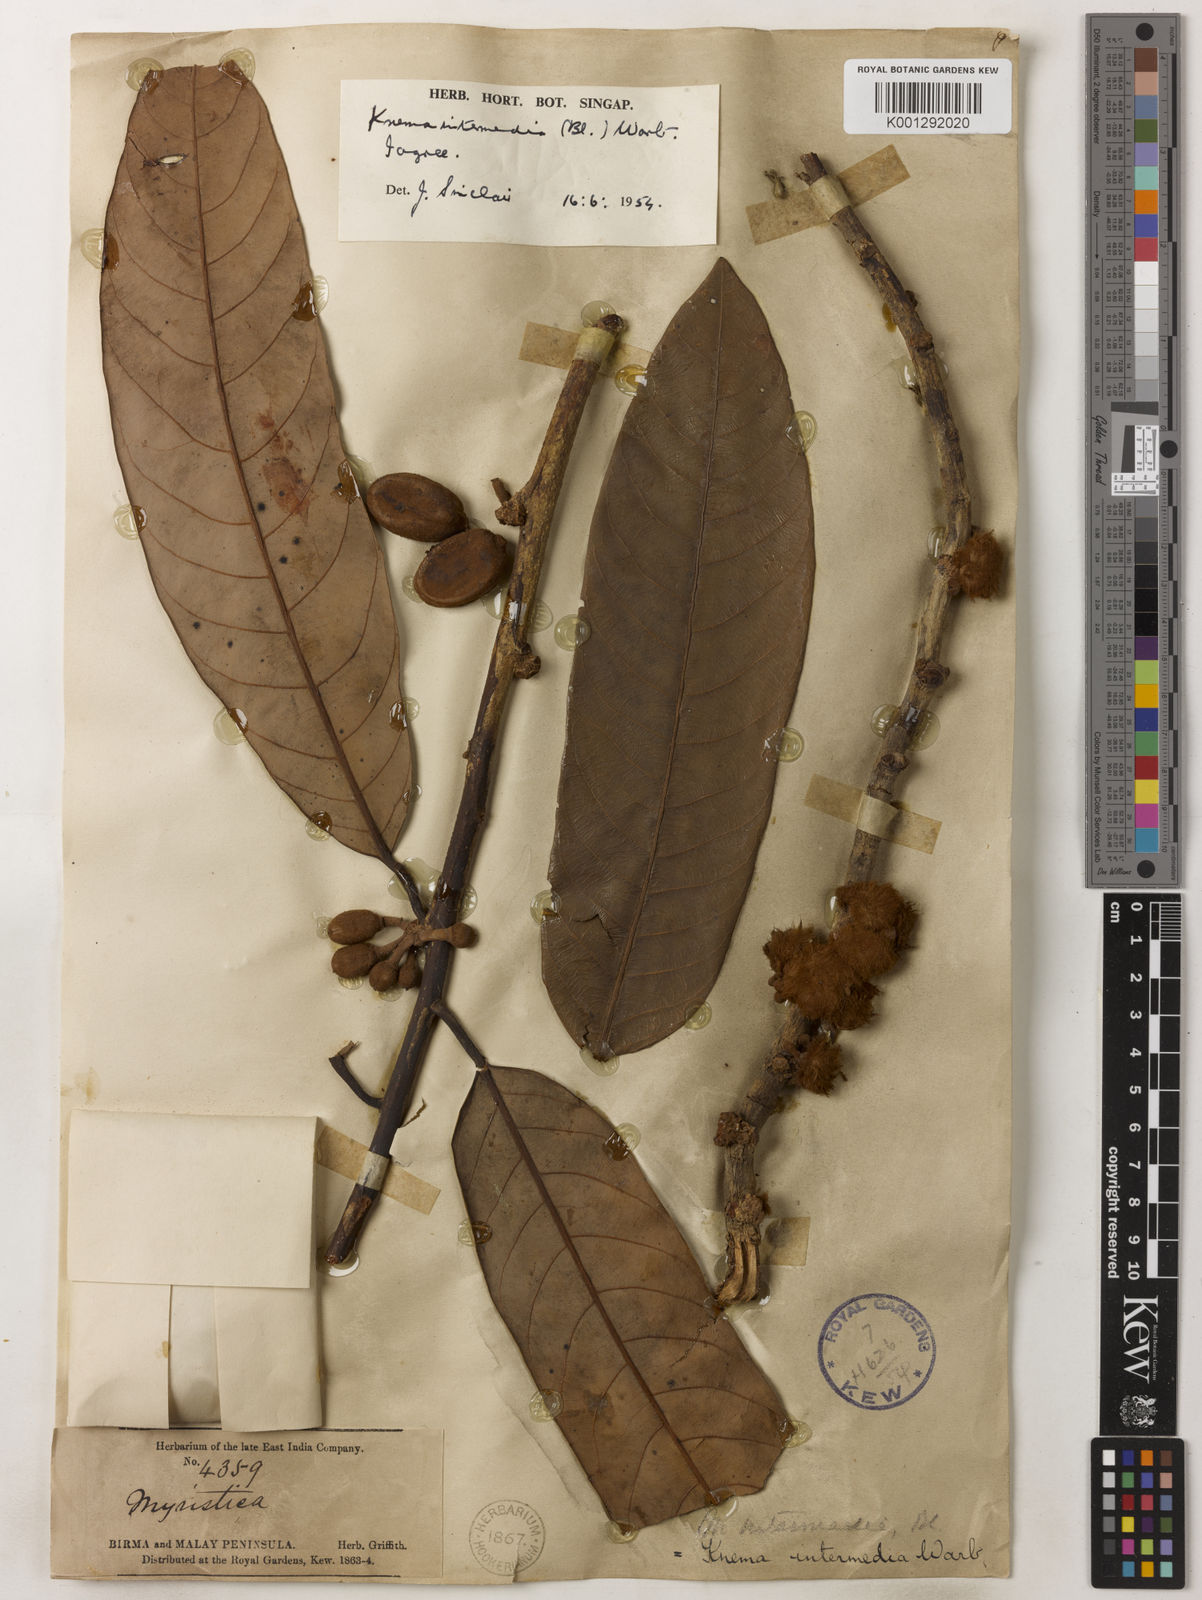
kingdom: Plantae
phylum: Tracheophyta
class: Magnoliopsida
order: Magnoliales
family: Myristicaceae
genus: Knema
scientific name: Knema intermedia
